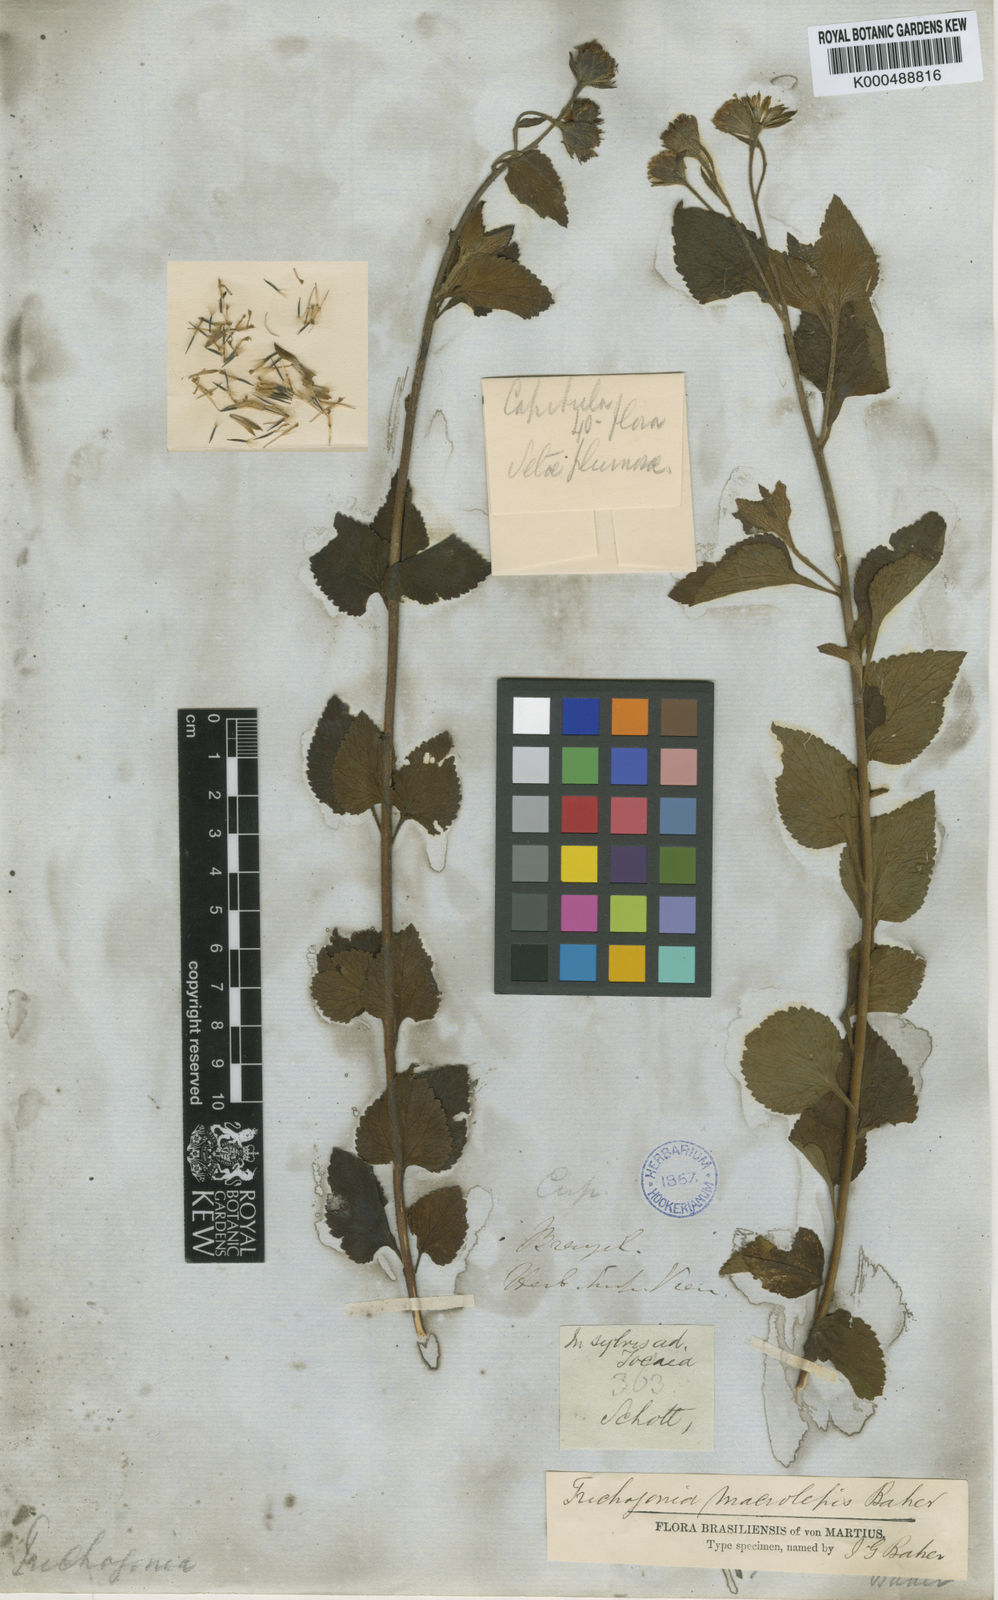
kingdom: Plantae
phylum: Tracheophyta
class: Magnoliopsida
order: Asterales
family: Asteraceae
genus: Trichogoniopsis
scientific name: Trichogoniopsis adenantha
